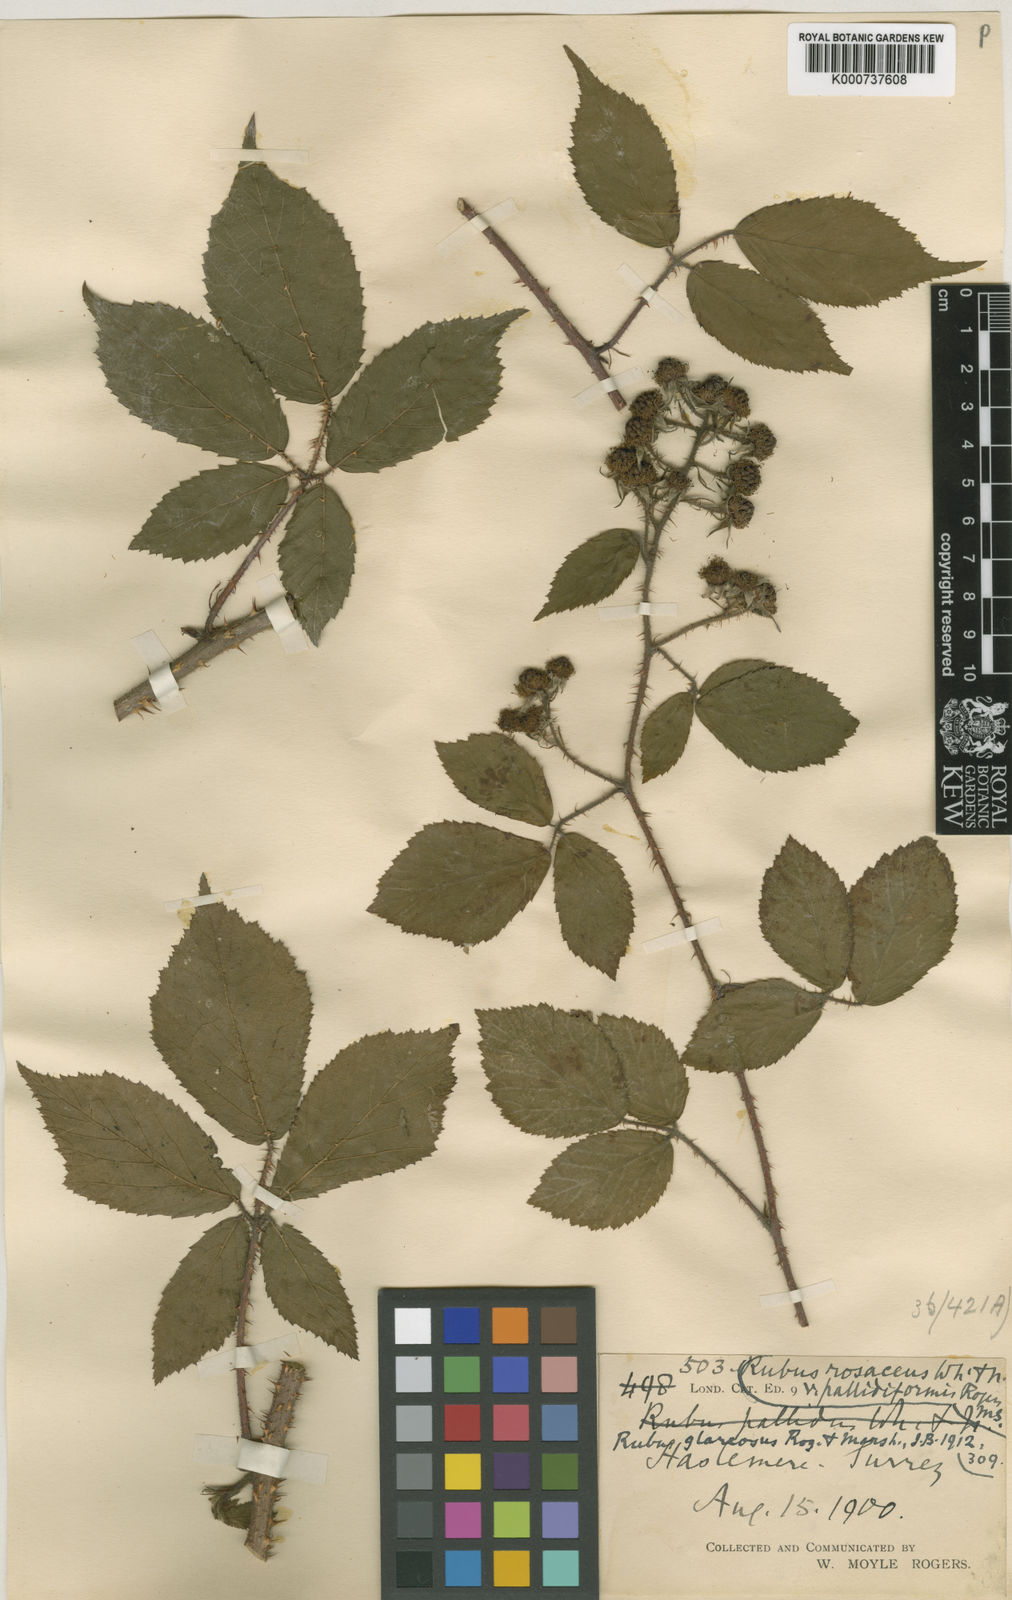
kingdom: Plantae
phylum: Tracheophyta
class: Magnoliopsida
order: Rosales
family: Rosaceae
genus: Rubus
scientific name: Rubus
